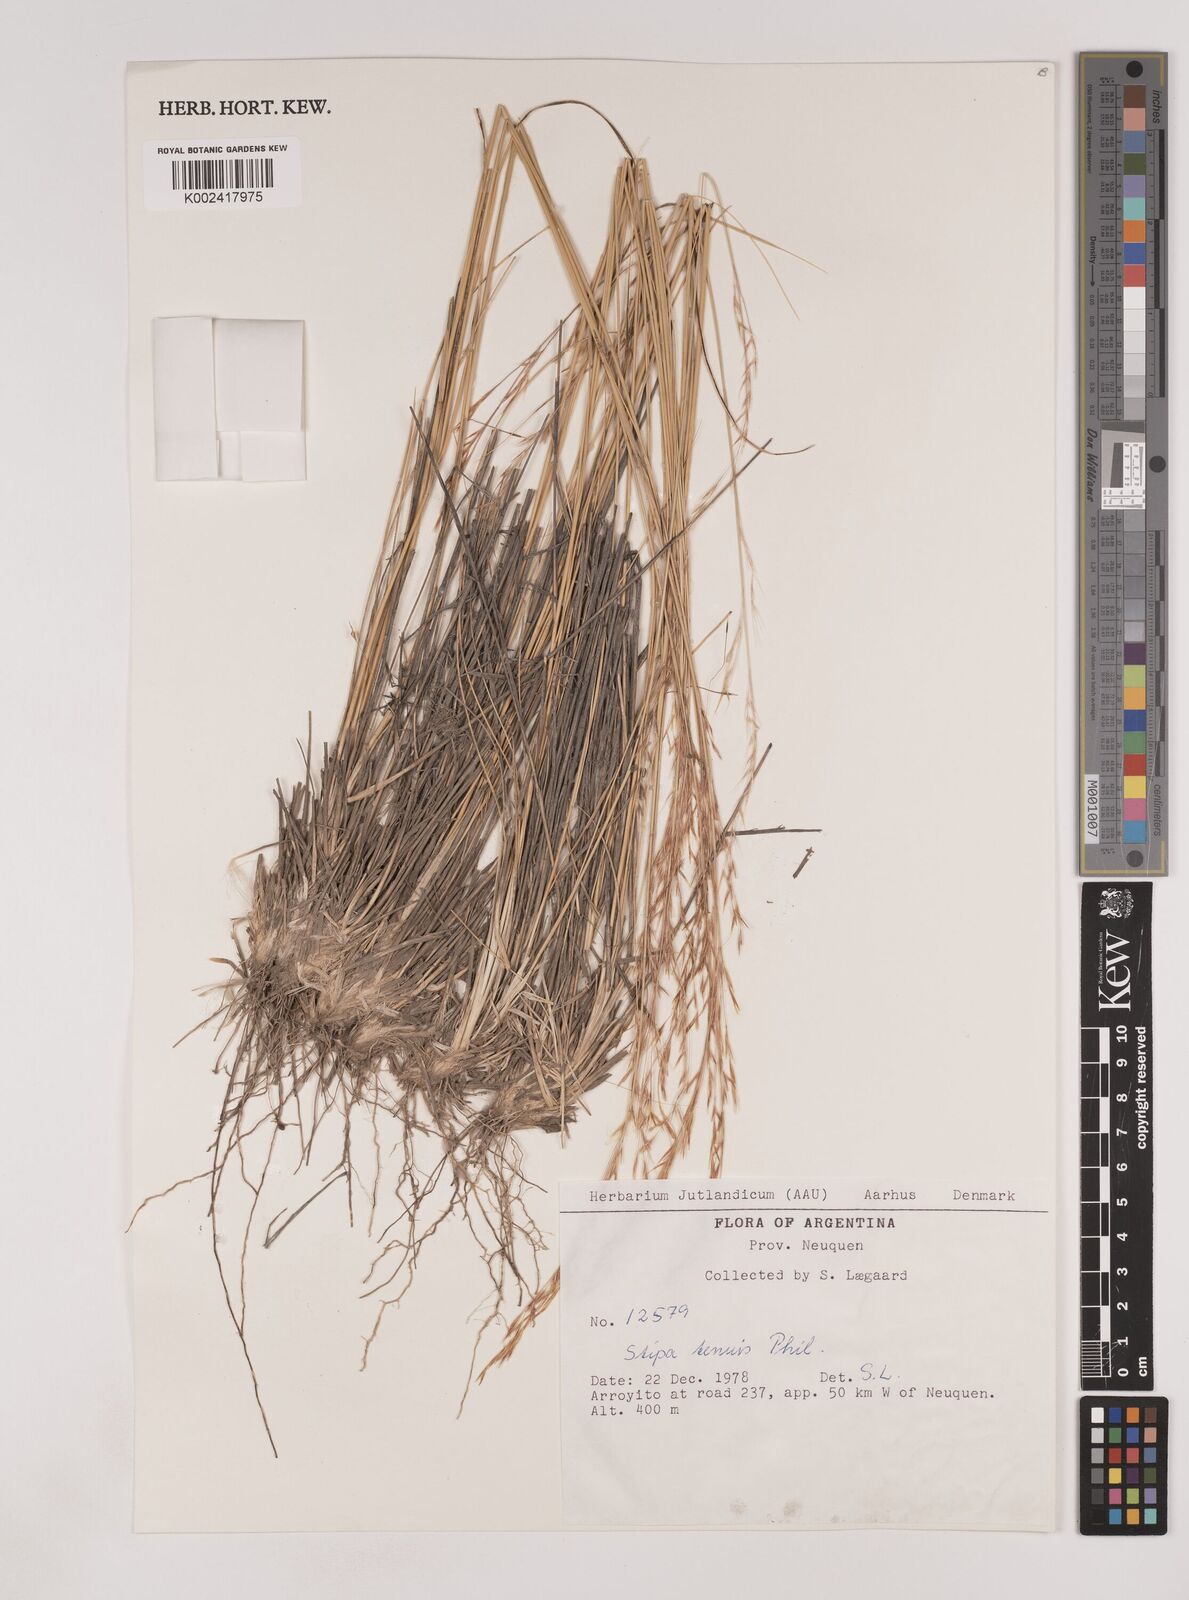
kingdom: Plantae
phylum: Tracheophyta
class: Liliopsida
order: Poales
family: Poaceae
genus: Nassella
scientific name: Nassella tenuis
